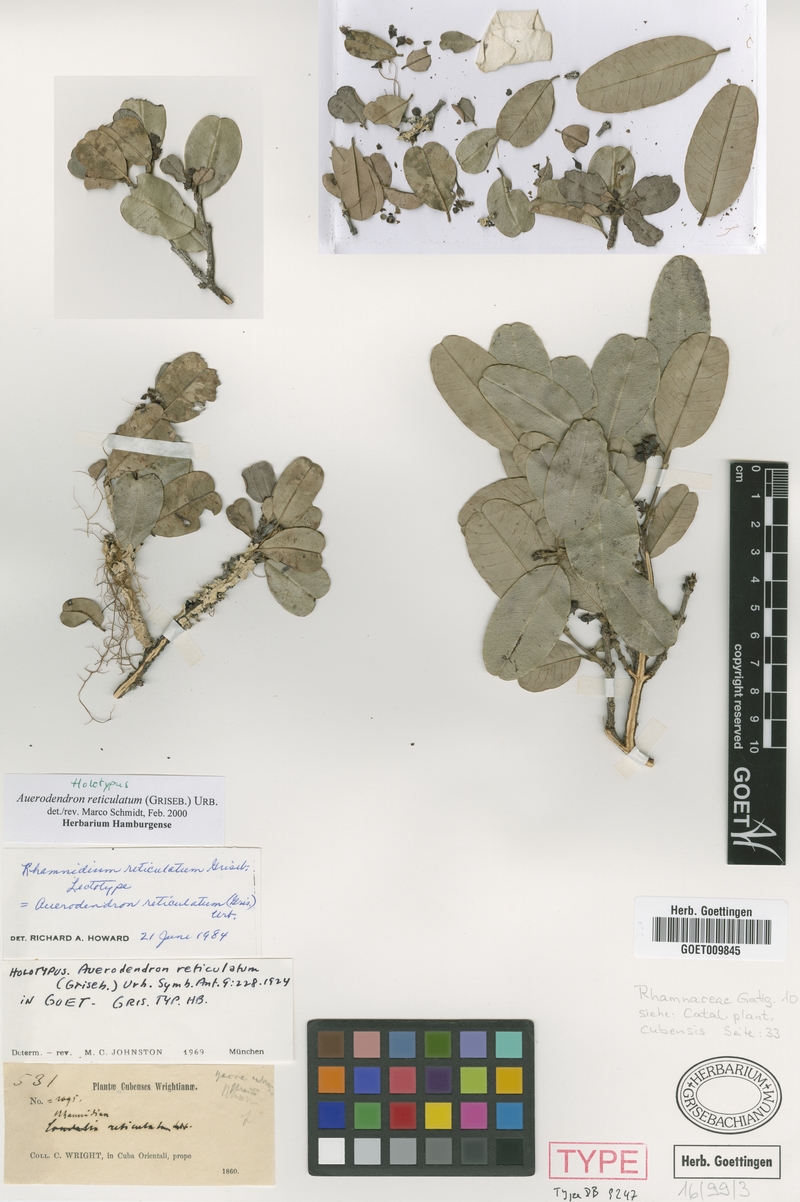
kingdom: Plantae
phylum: Tracheophyta
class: Magnoliopsida
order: Rosales
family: Rhamnaceae
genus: Auerodendron
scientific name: Auerodendron reticulatum
